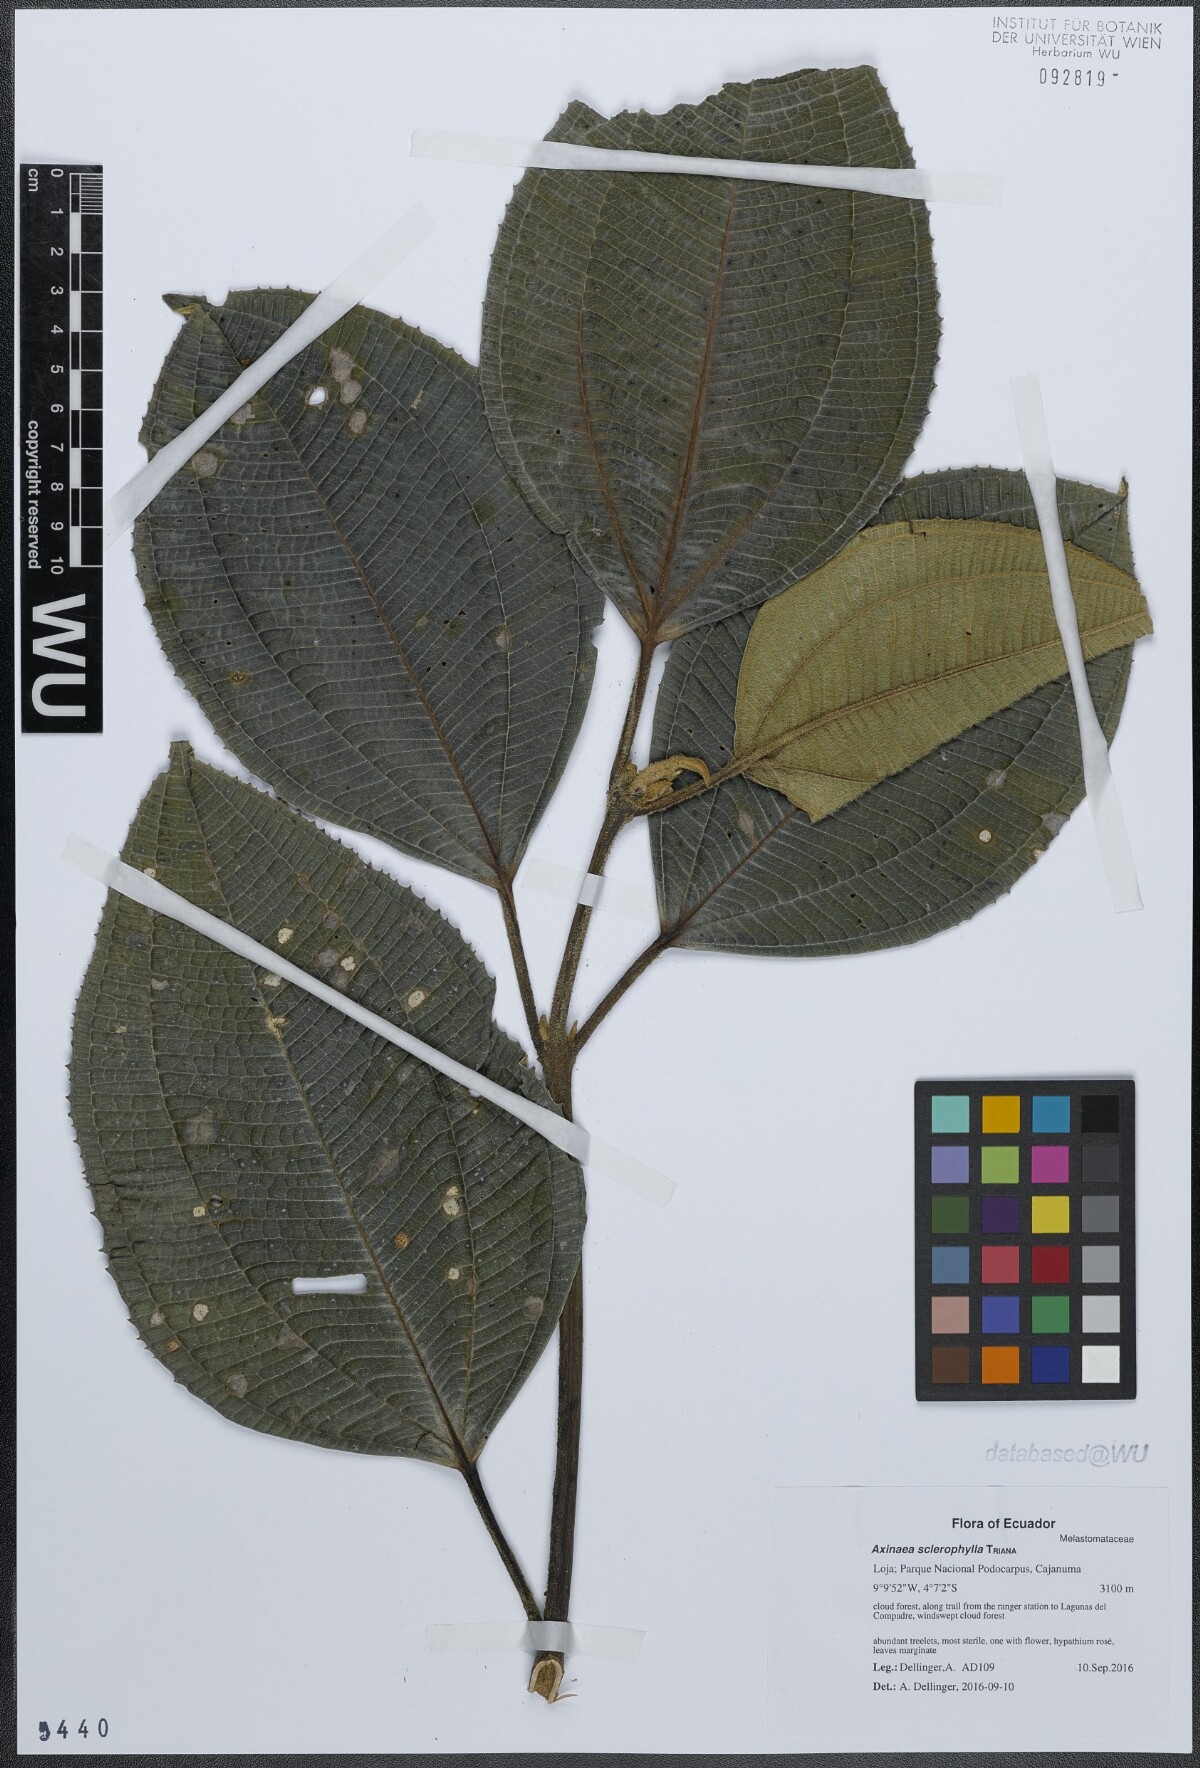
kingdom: Plantae
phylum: Tracheophyta
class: Magnoliopsida
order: Myrtales
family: Melastomataceae
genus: Axinaea
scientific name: Axinaea sclerophylla
